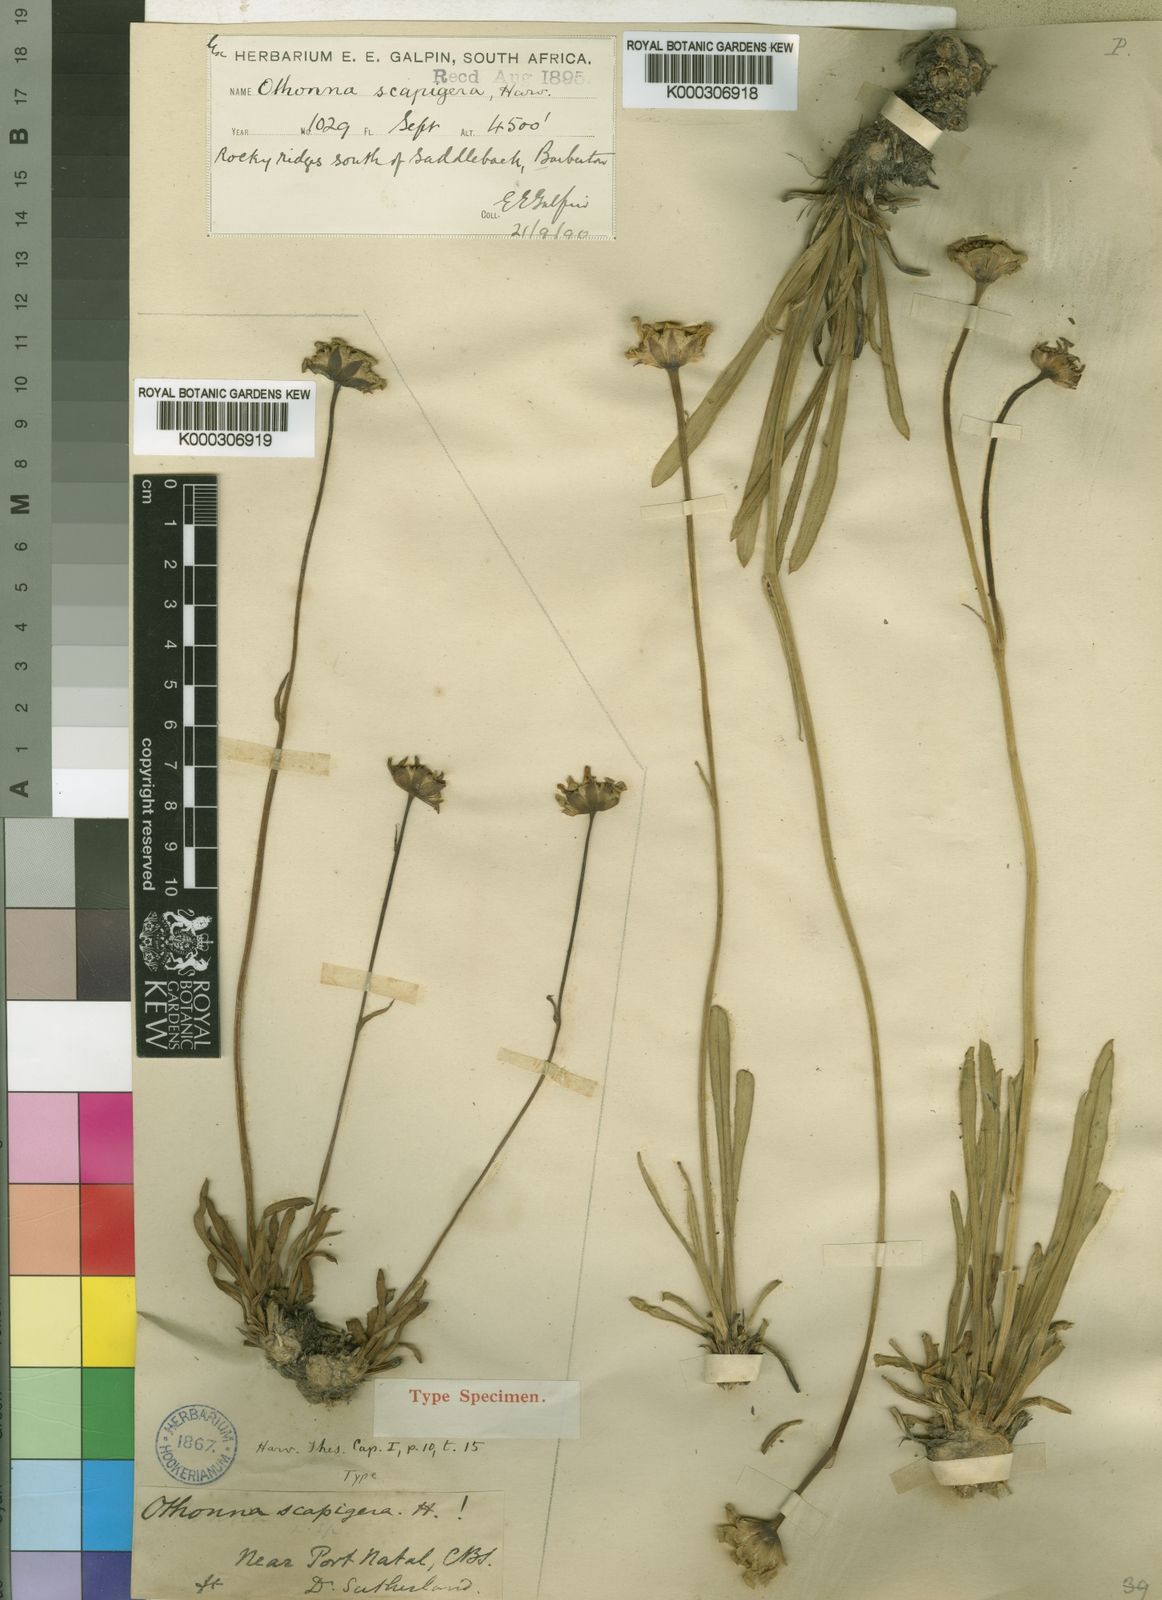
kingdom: Plantae
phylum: Tracheophyta
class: Magnoliopsida
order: Asterales
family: Asteraceae
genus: Othonna
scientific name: Othonna natalensis
